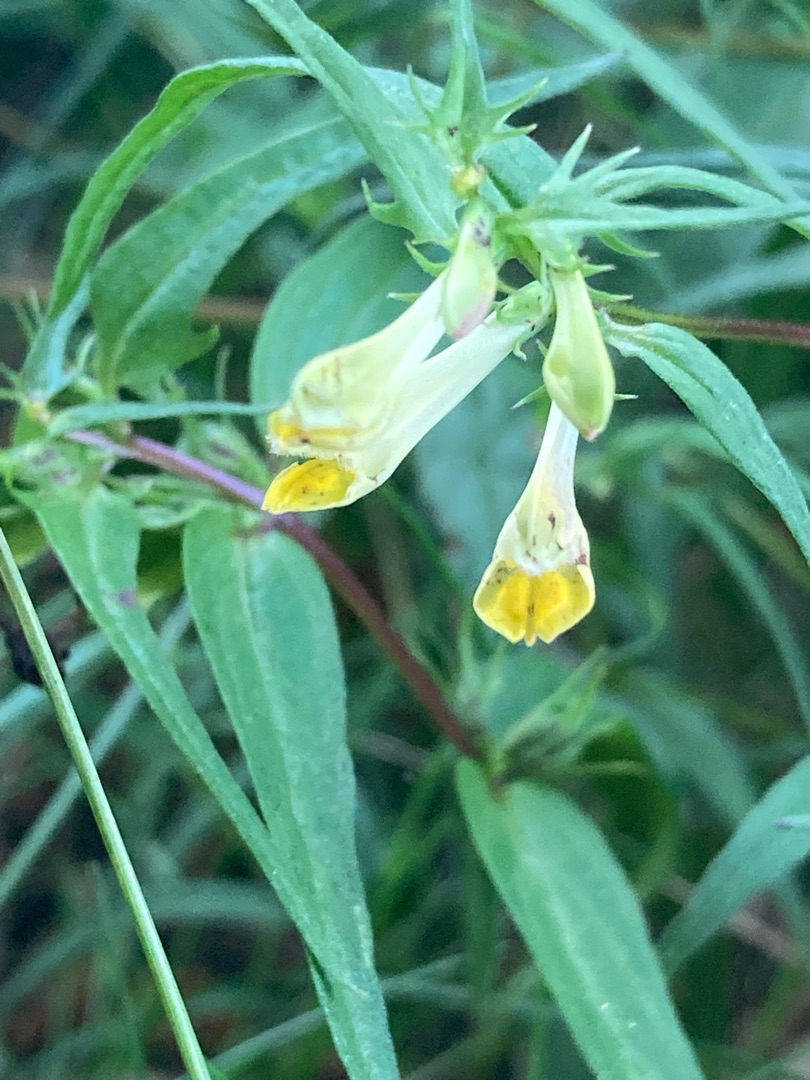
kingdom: Plantae
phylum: Tracheophyta
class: Magnoliopsida
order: Lamiales
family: Orobanchaceae
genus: Melampyrum
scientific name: Melampyrum pratense
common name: Almindelig kohvede
